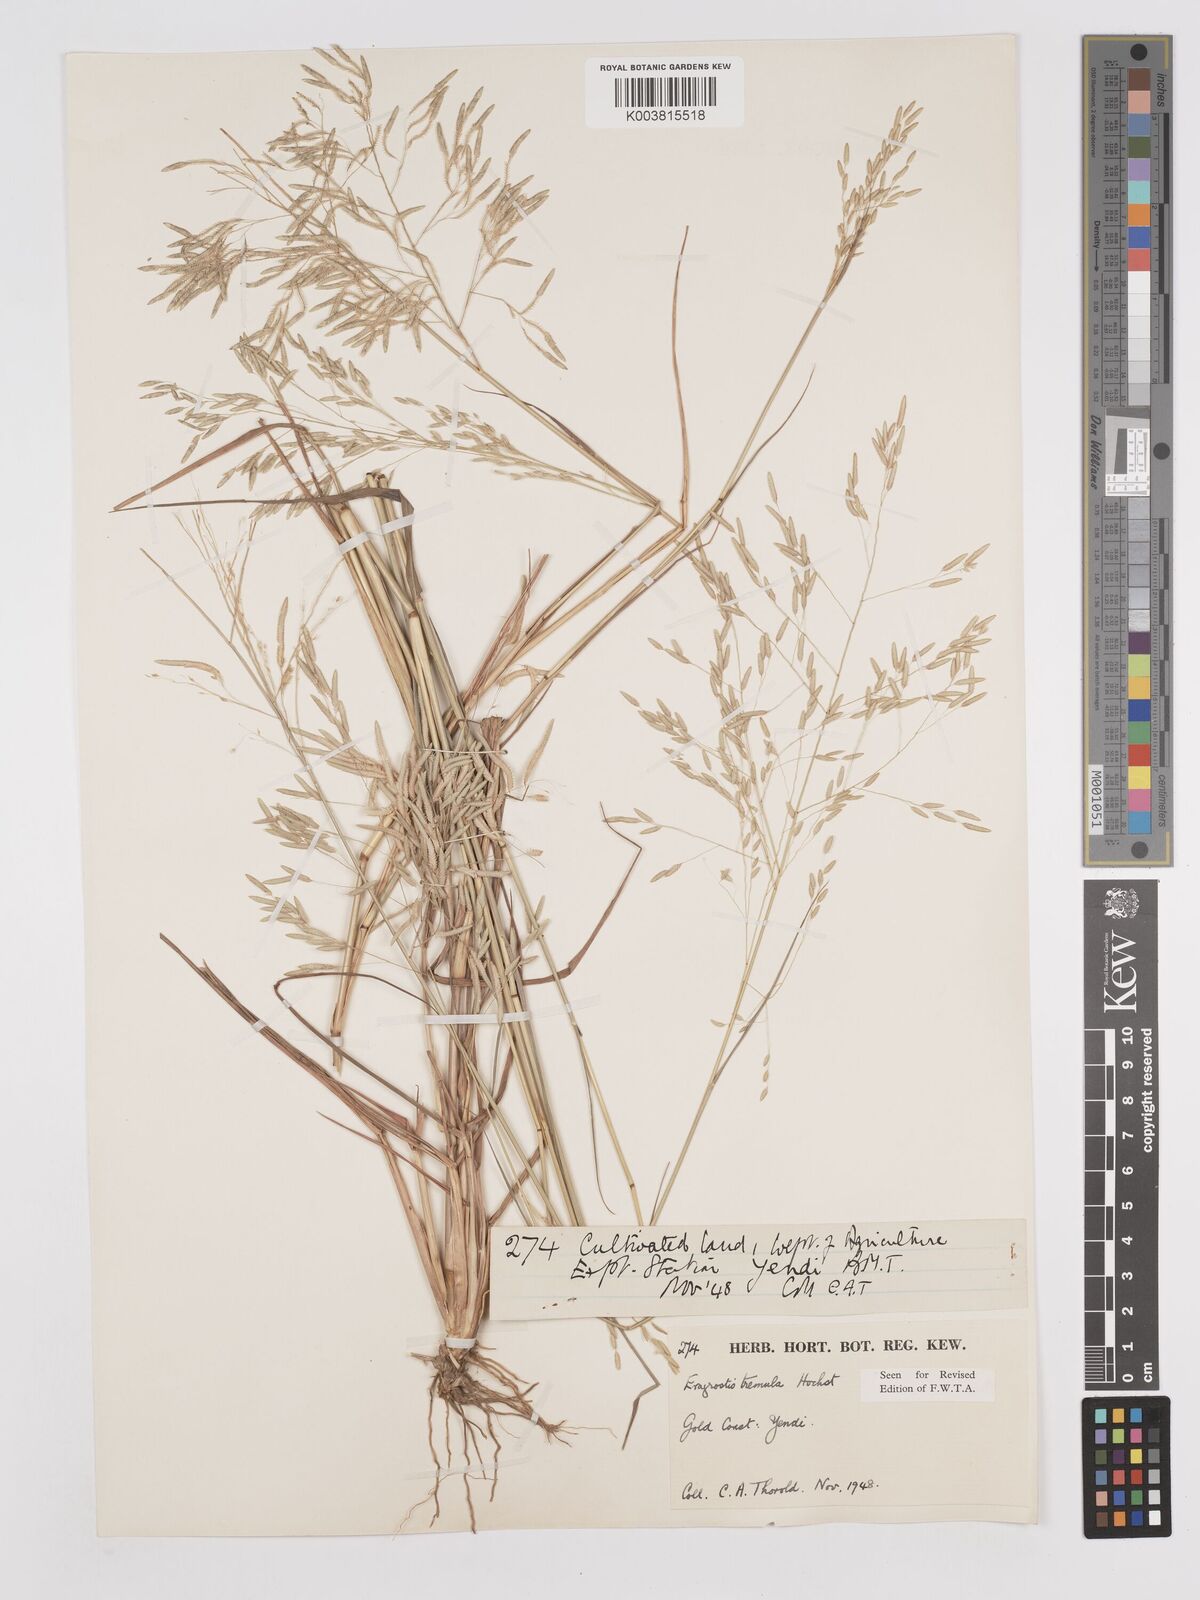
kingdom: Plantae
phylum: Tracheophyta
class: Liliopsida
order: Poales
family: Poaceae
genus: Eragrostis
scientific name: Eragrostis tremula
